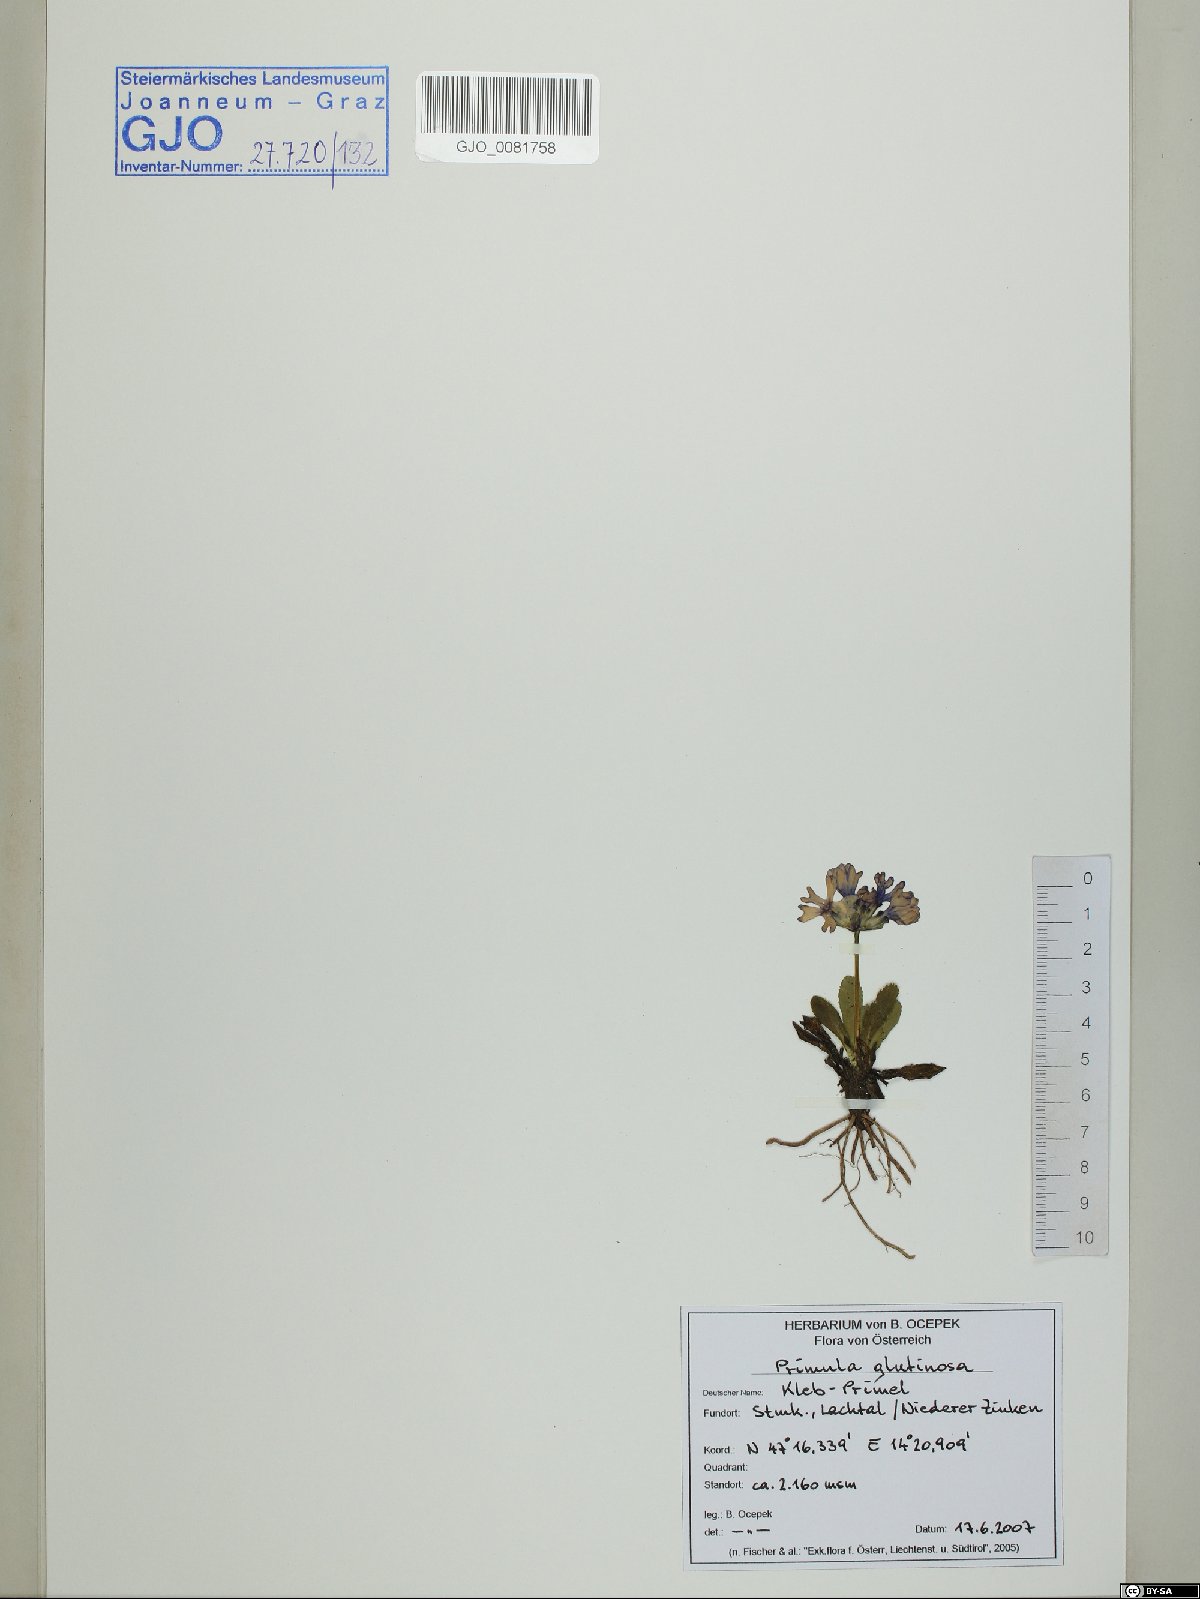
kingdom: Plantae
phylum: Tracheophyta
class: Magnoliopsida
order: Ericales
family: Primulaceae
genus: Primula
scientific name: Primula glutinosa
